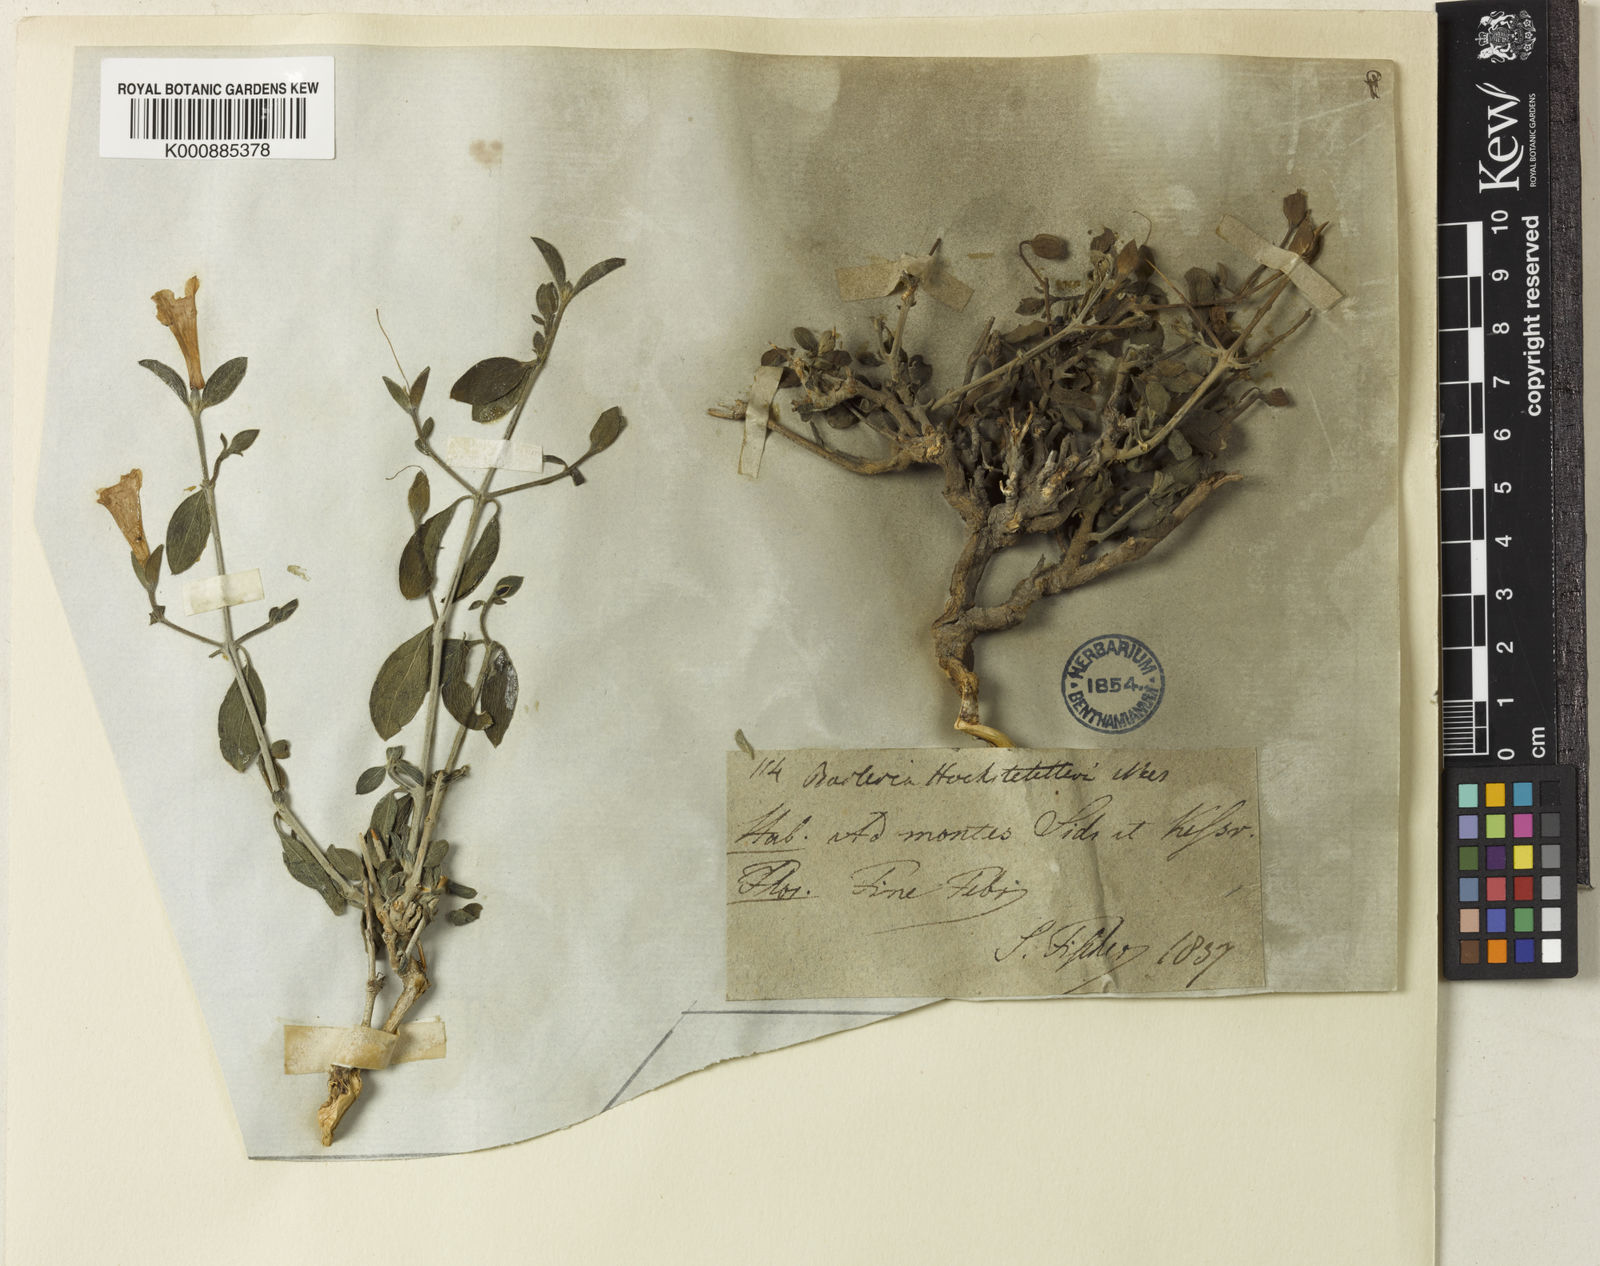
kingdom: Plantae
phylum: Tracheophyta
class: Magnoliopsida
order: Lamiales
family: Acanthaceae
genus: Barleria
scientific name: Barleria
